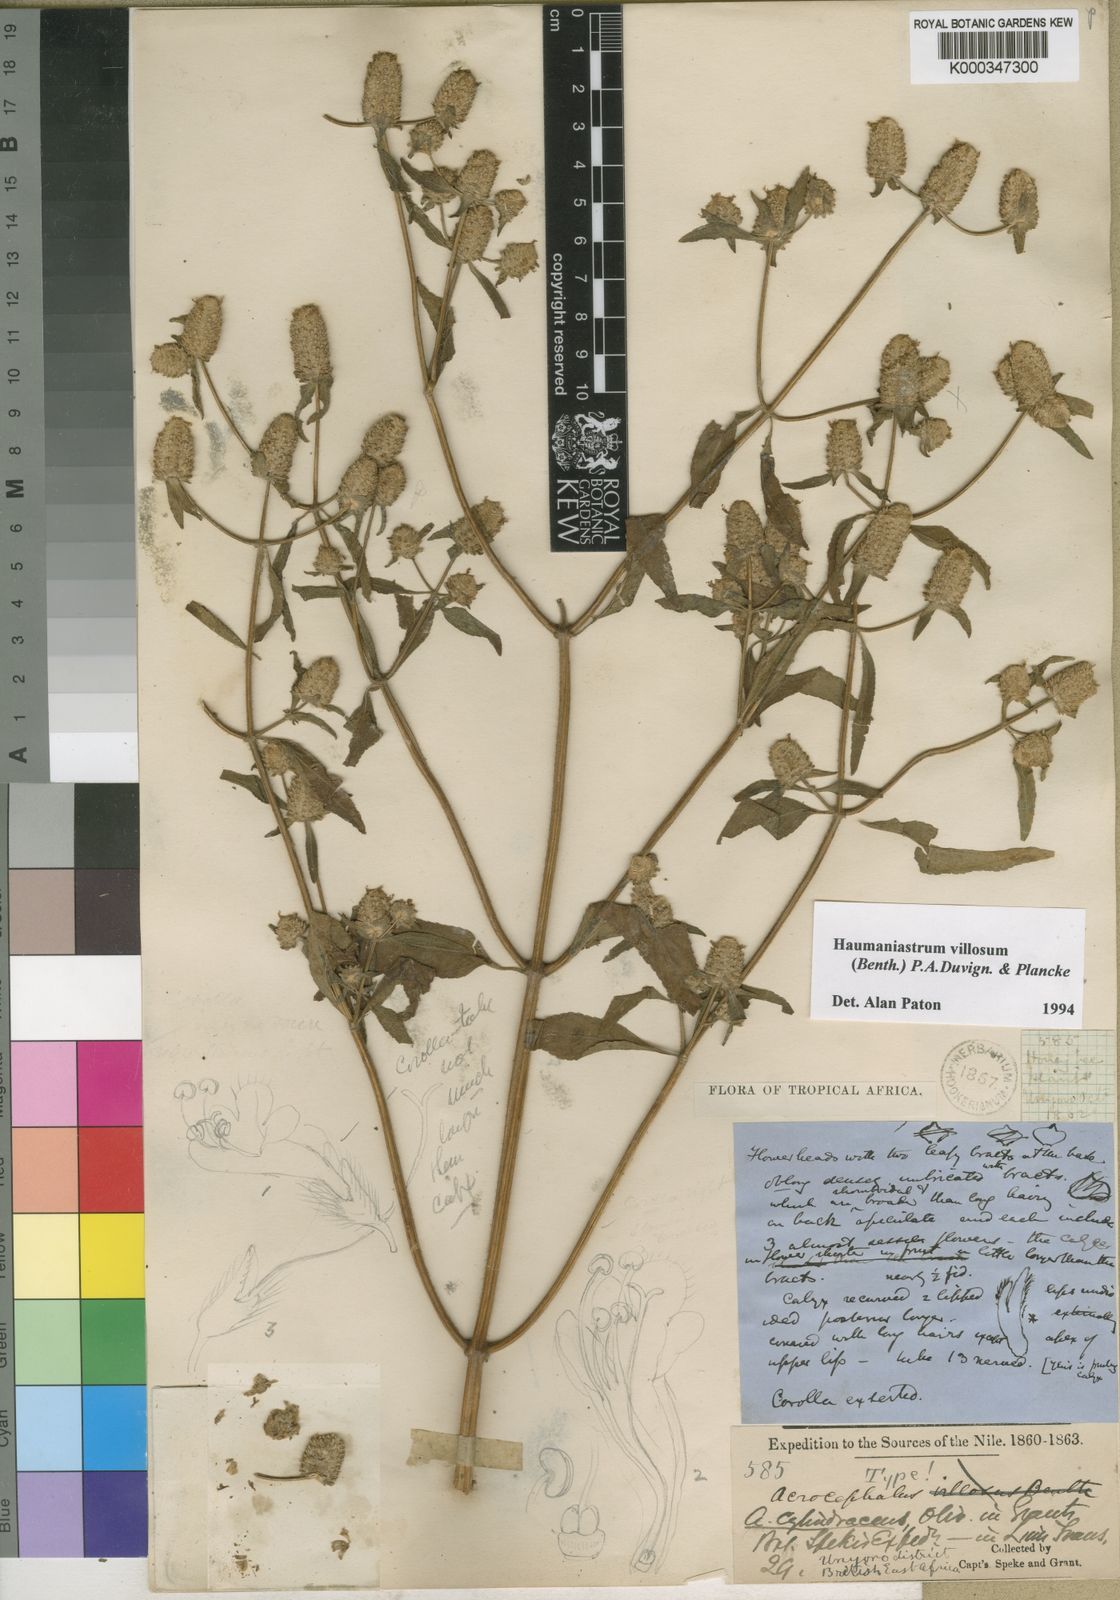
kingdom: Plantae
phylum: Tracheophyta
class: Magnoliopsida
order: Lamiales
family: Lamiaceae
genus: Haumaniastrum
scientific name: Haumaniastrum villosum
